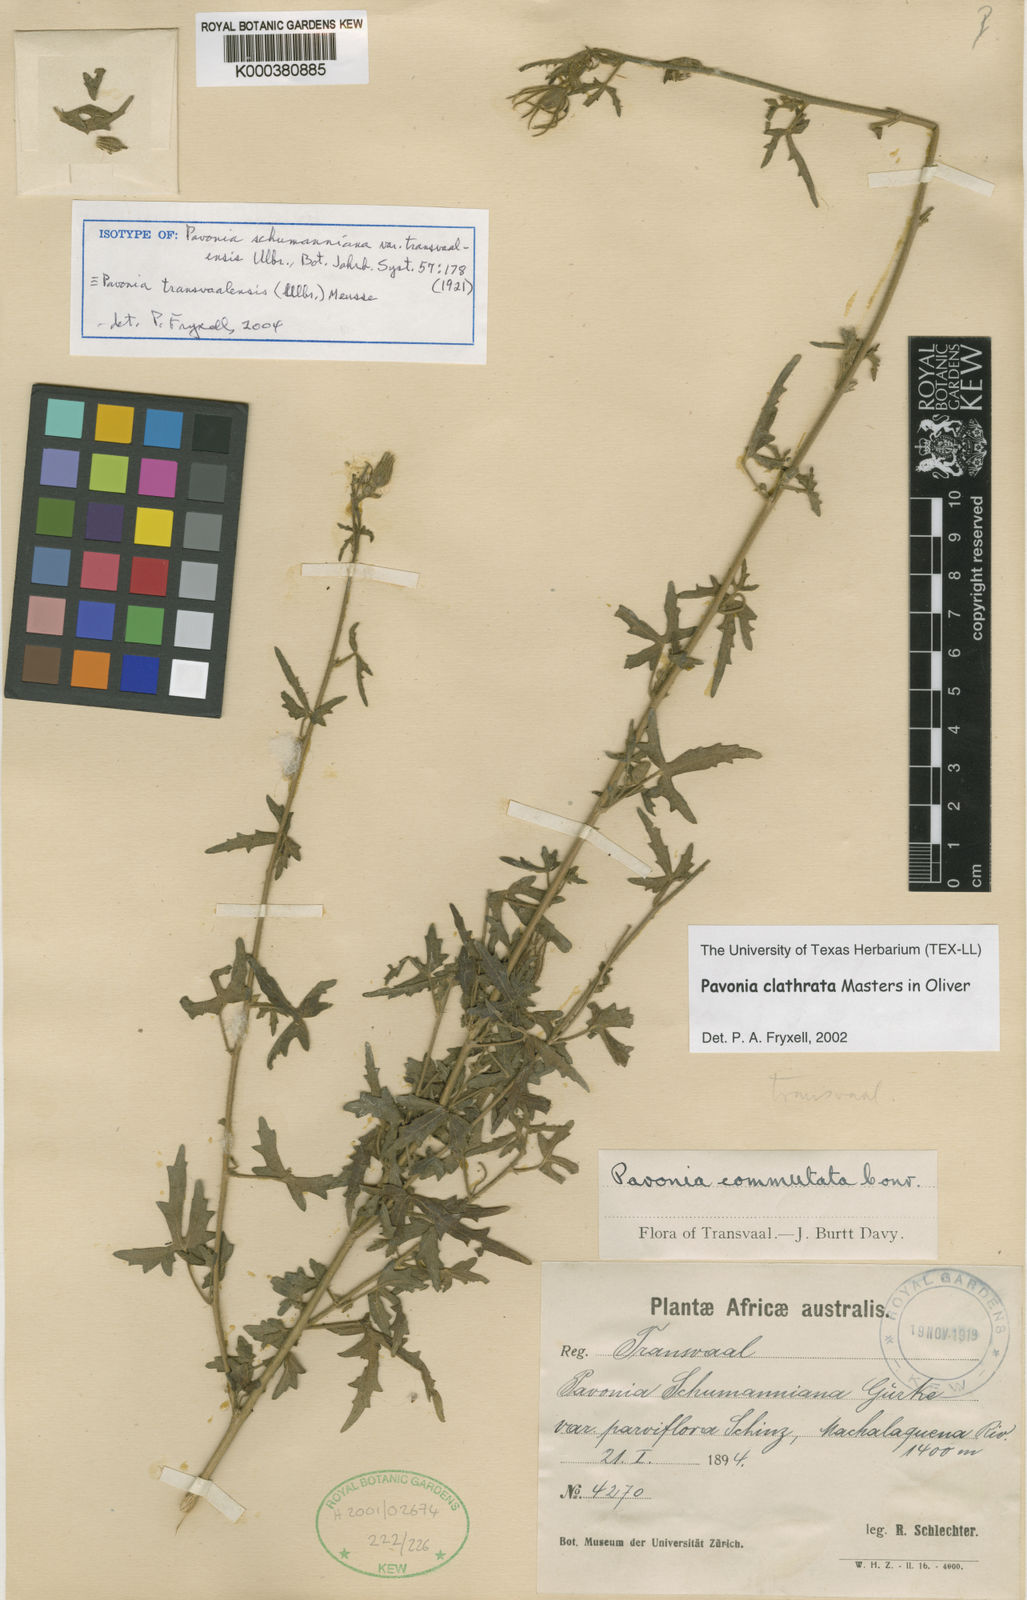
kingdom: Plantae
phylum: Tracheophyta
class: Magnoliopsida
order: Malvales
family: Malvaceae
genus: Pavonia
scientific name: Pavonia transvaalensis
